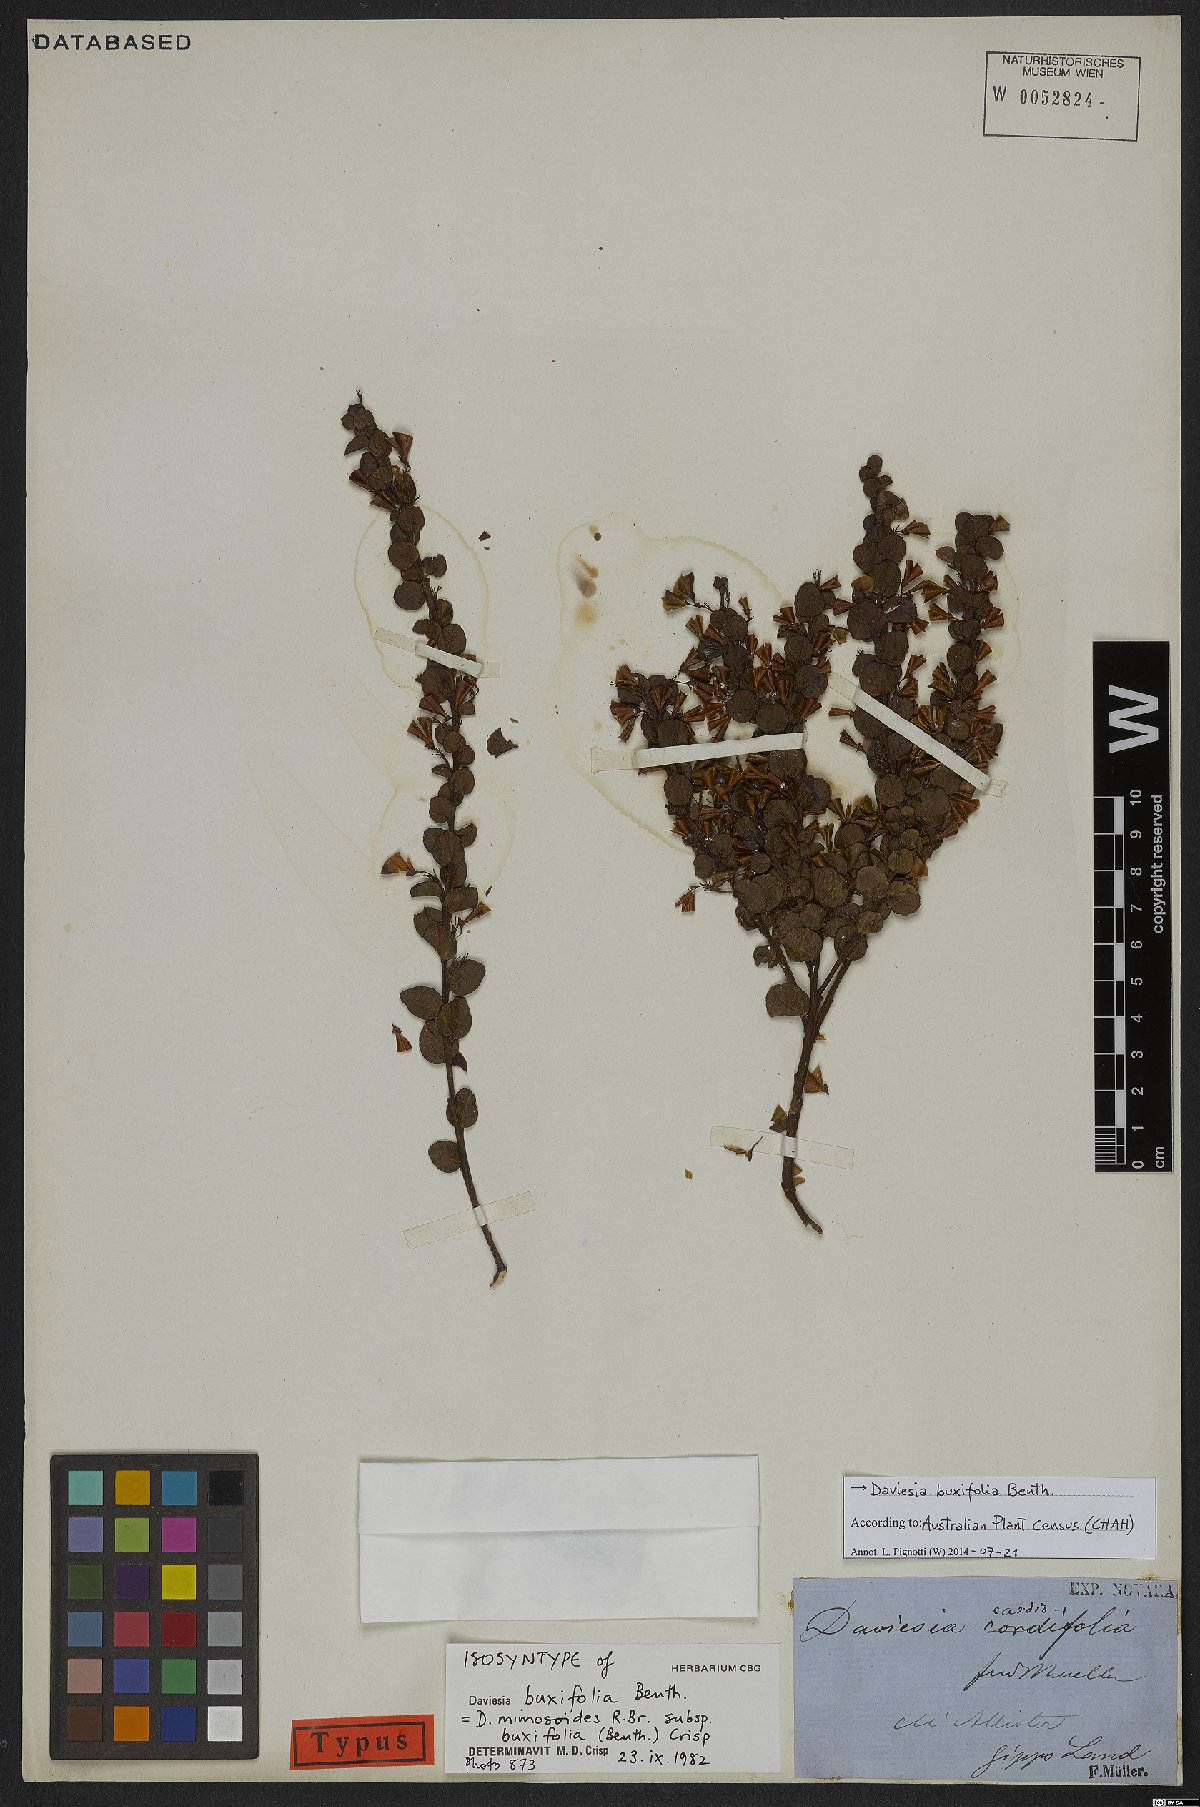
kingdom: Plantae
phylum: Tracheophyta
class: Magnoliopsida
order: Fabales
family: Fabaceae
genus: Daviesia
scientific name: Daviesia buxifolia
